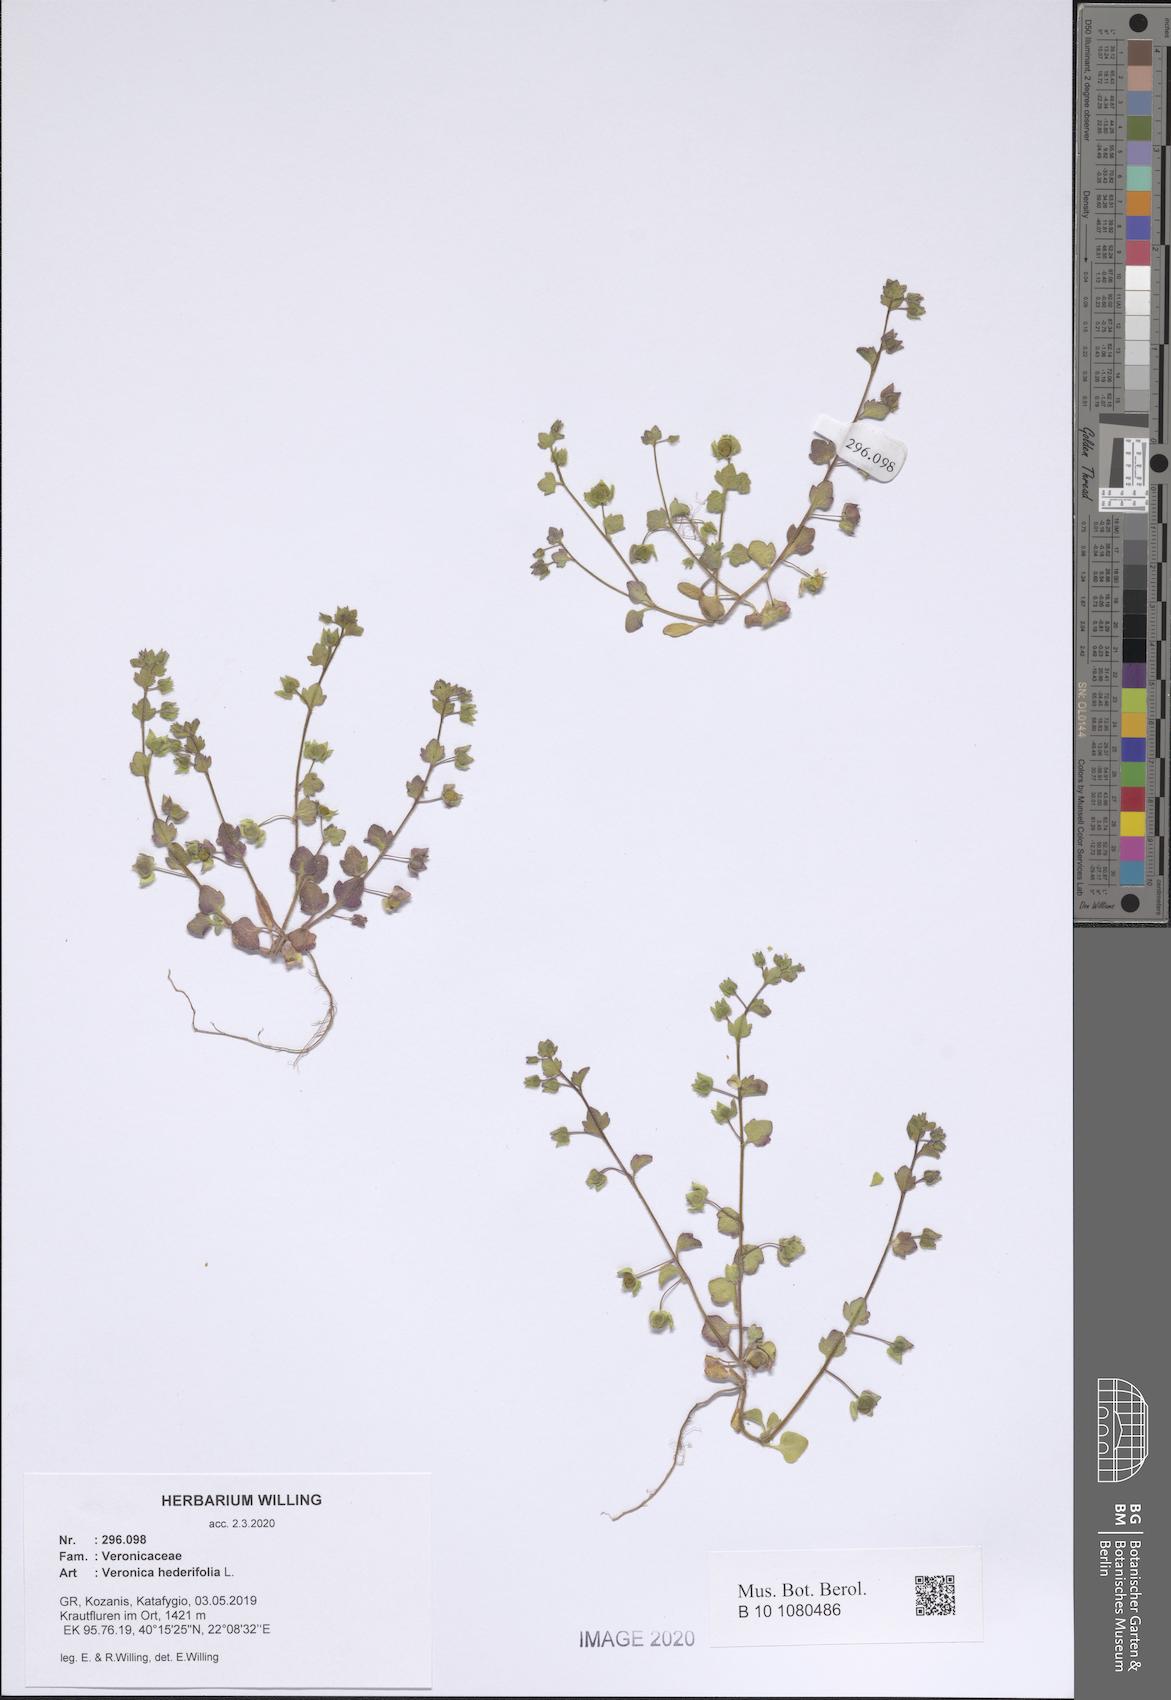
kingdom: Plantae
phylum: Tracheophyta
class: Magnoliopsida
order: Lamiales
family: Plantaginaceae
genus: Veronica
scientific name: Veronica hederifolia
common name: Ivy-leaved speedwell
